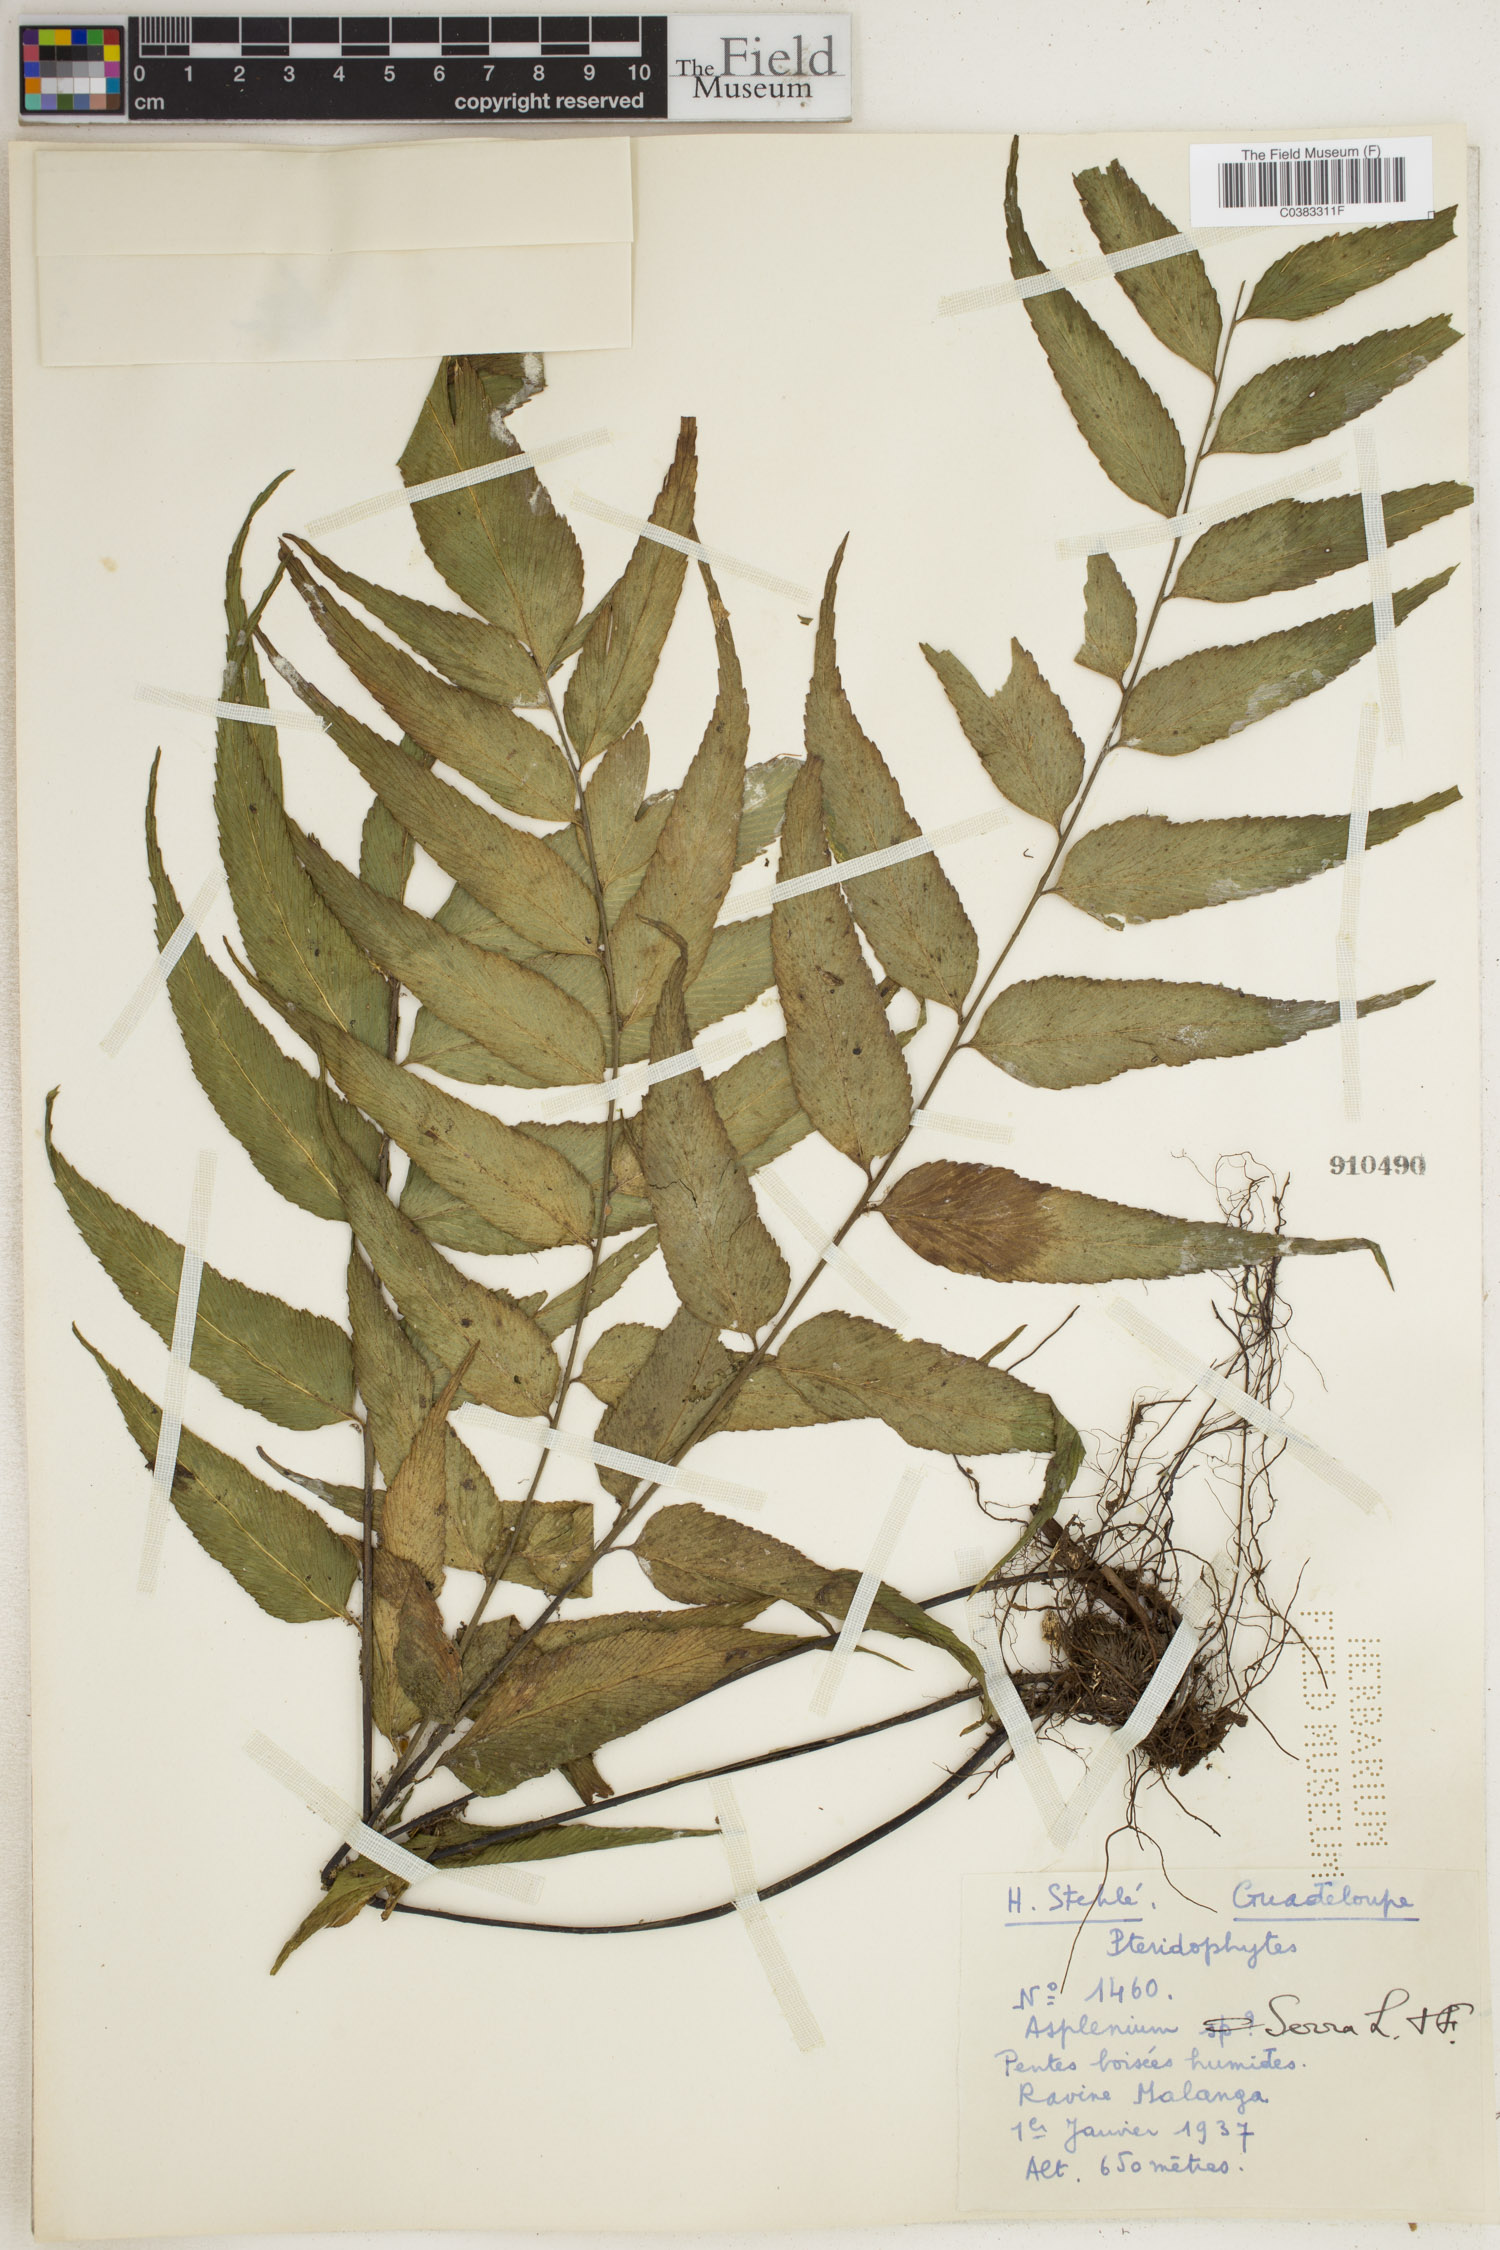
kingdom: Plantae
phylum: Tracheophyta
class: Polypodiopsida
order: Polypodiales
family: Aspleniaceae
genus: Asplenium
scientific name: Asplenium serra
